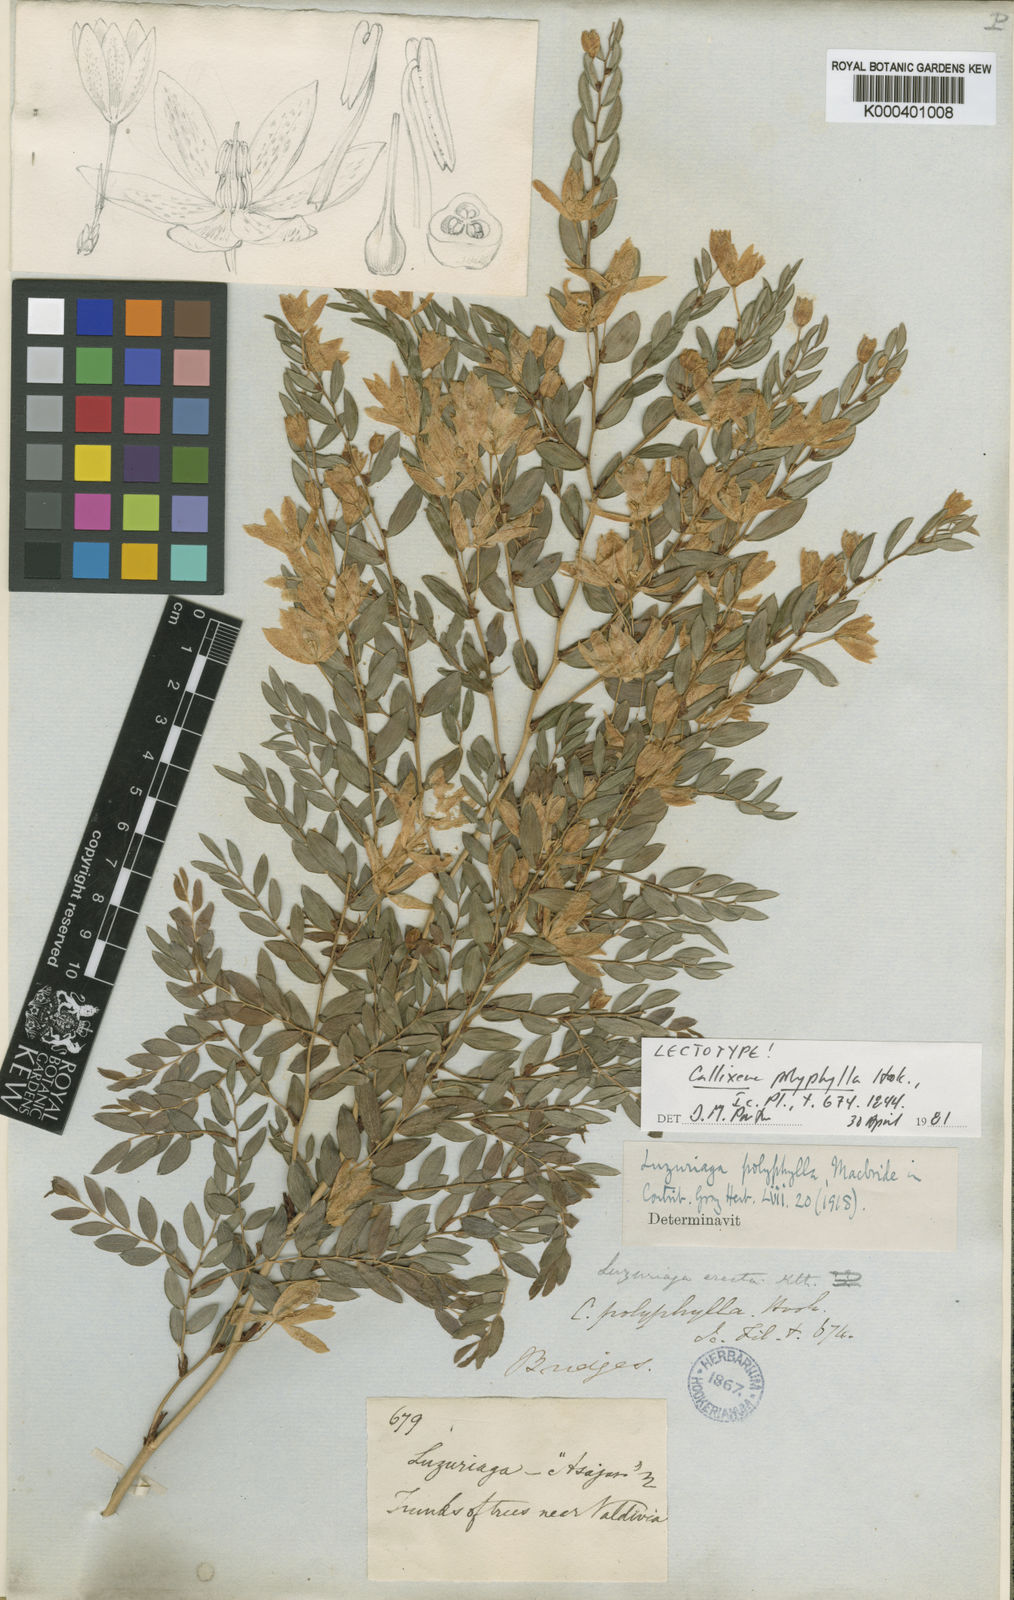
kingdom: Plantae
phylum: Tracheophyta
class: Liliopsida
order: Liliales
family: Alstroemeriaceae
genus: Luzuriaga
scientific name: Luzuriaga polyphylla
